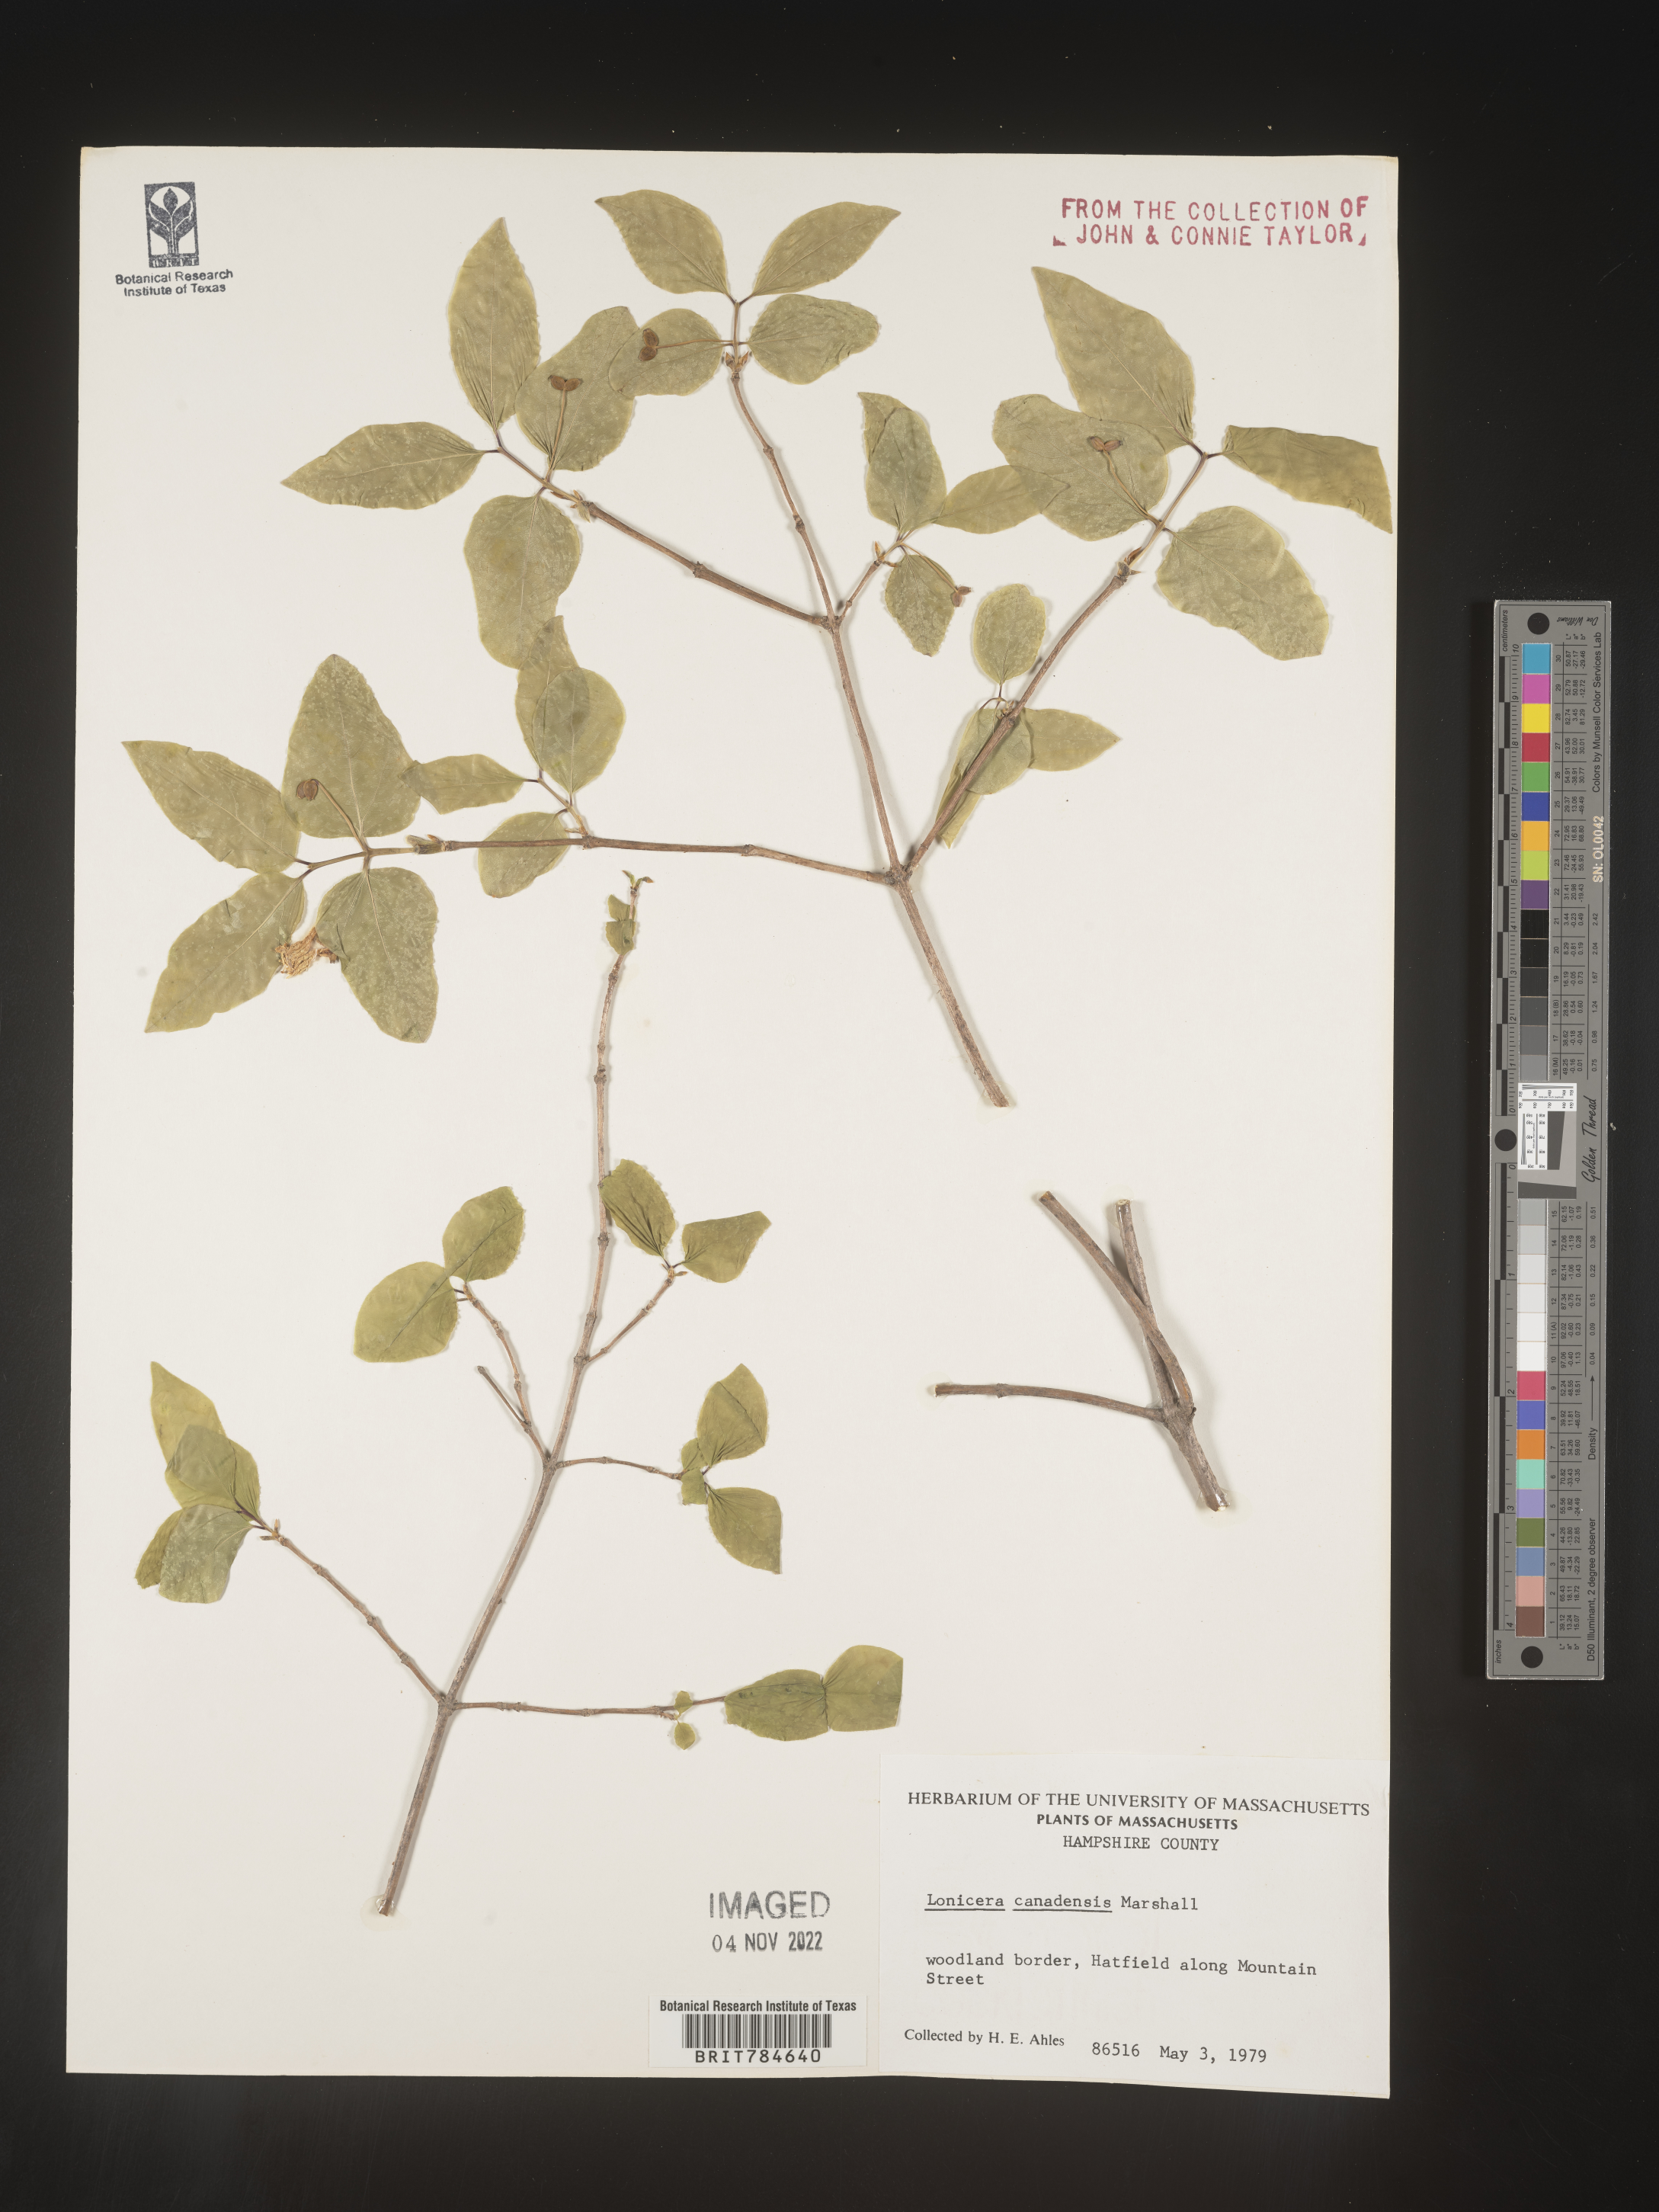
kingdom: Plantae
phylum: Tracheophyta
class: Magnoliopsida
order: Dipsacales
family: Caprifoliaceae
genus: Lonicera
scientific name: Lonicera
